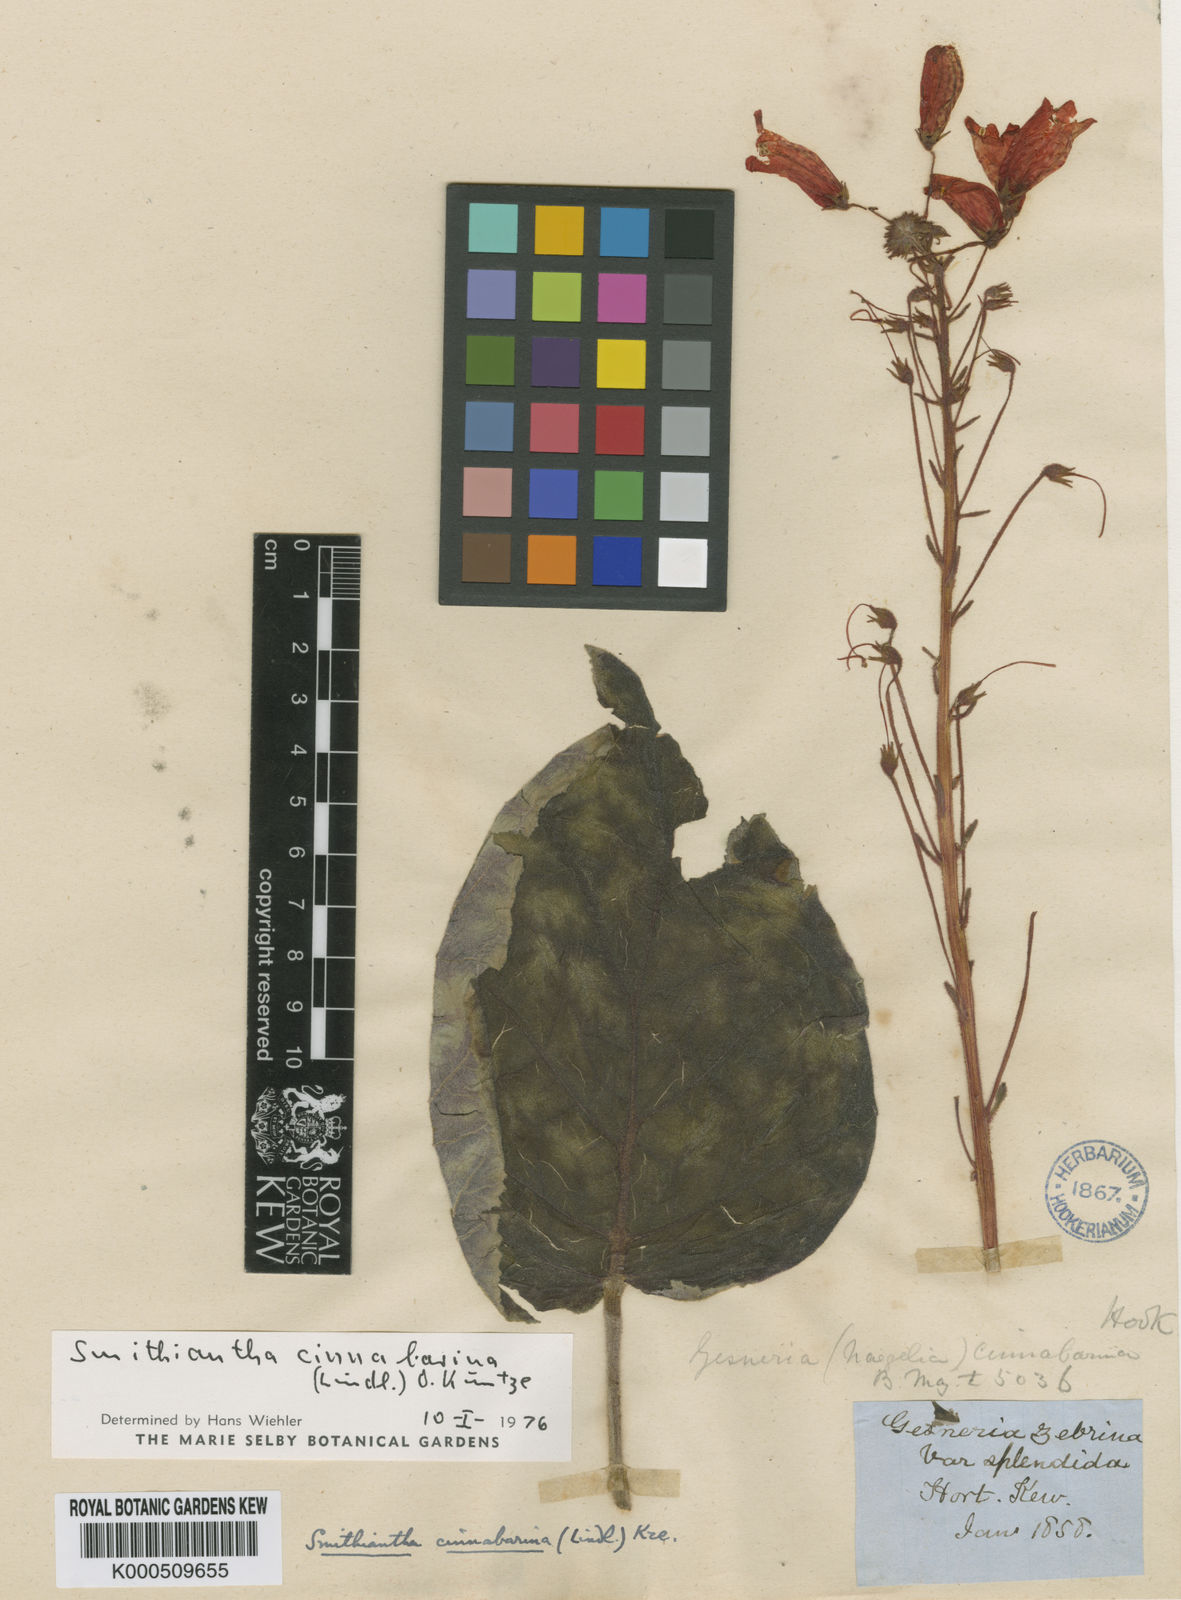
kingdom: Plantae
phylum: Tracheophyta
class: Magnoliopsida
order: Lamiales
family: Gesneriaceae
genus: Smithiantha
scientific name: Smithiantha cinnabarina
